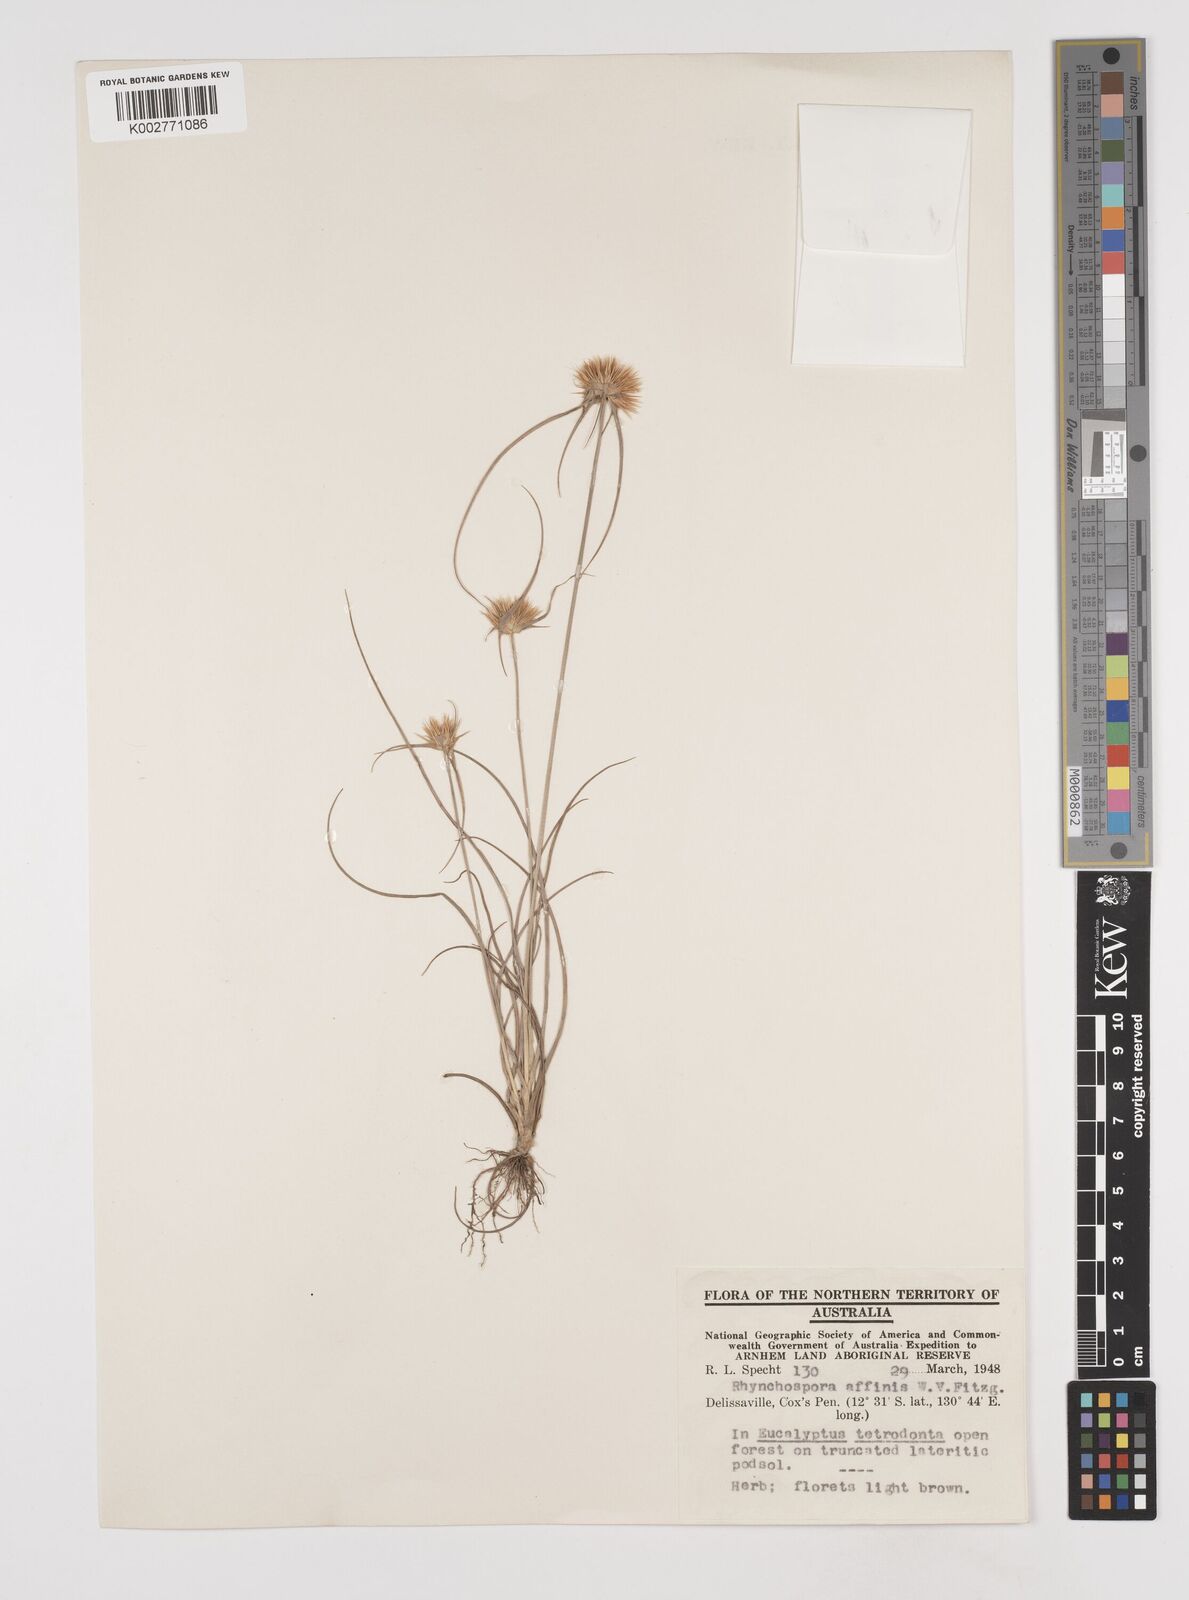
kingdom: Plantae
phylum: Tracheophyta
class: Liliopsida
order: Poales
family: Cyperaceae
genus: Rhynchospora
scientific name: Rhynchospora affinis
